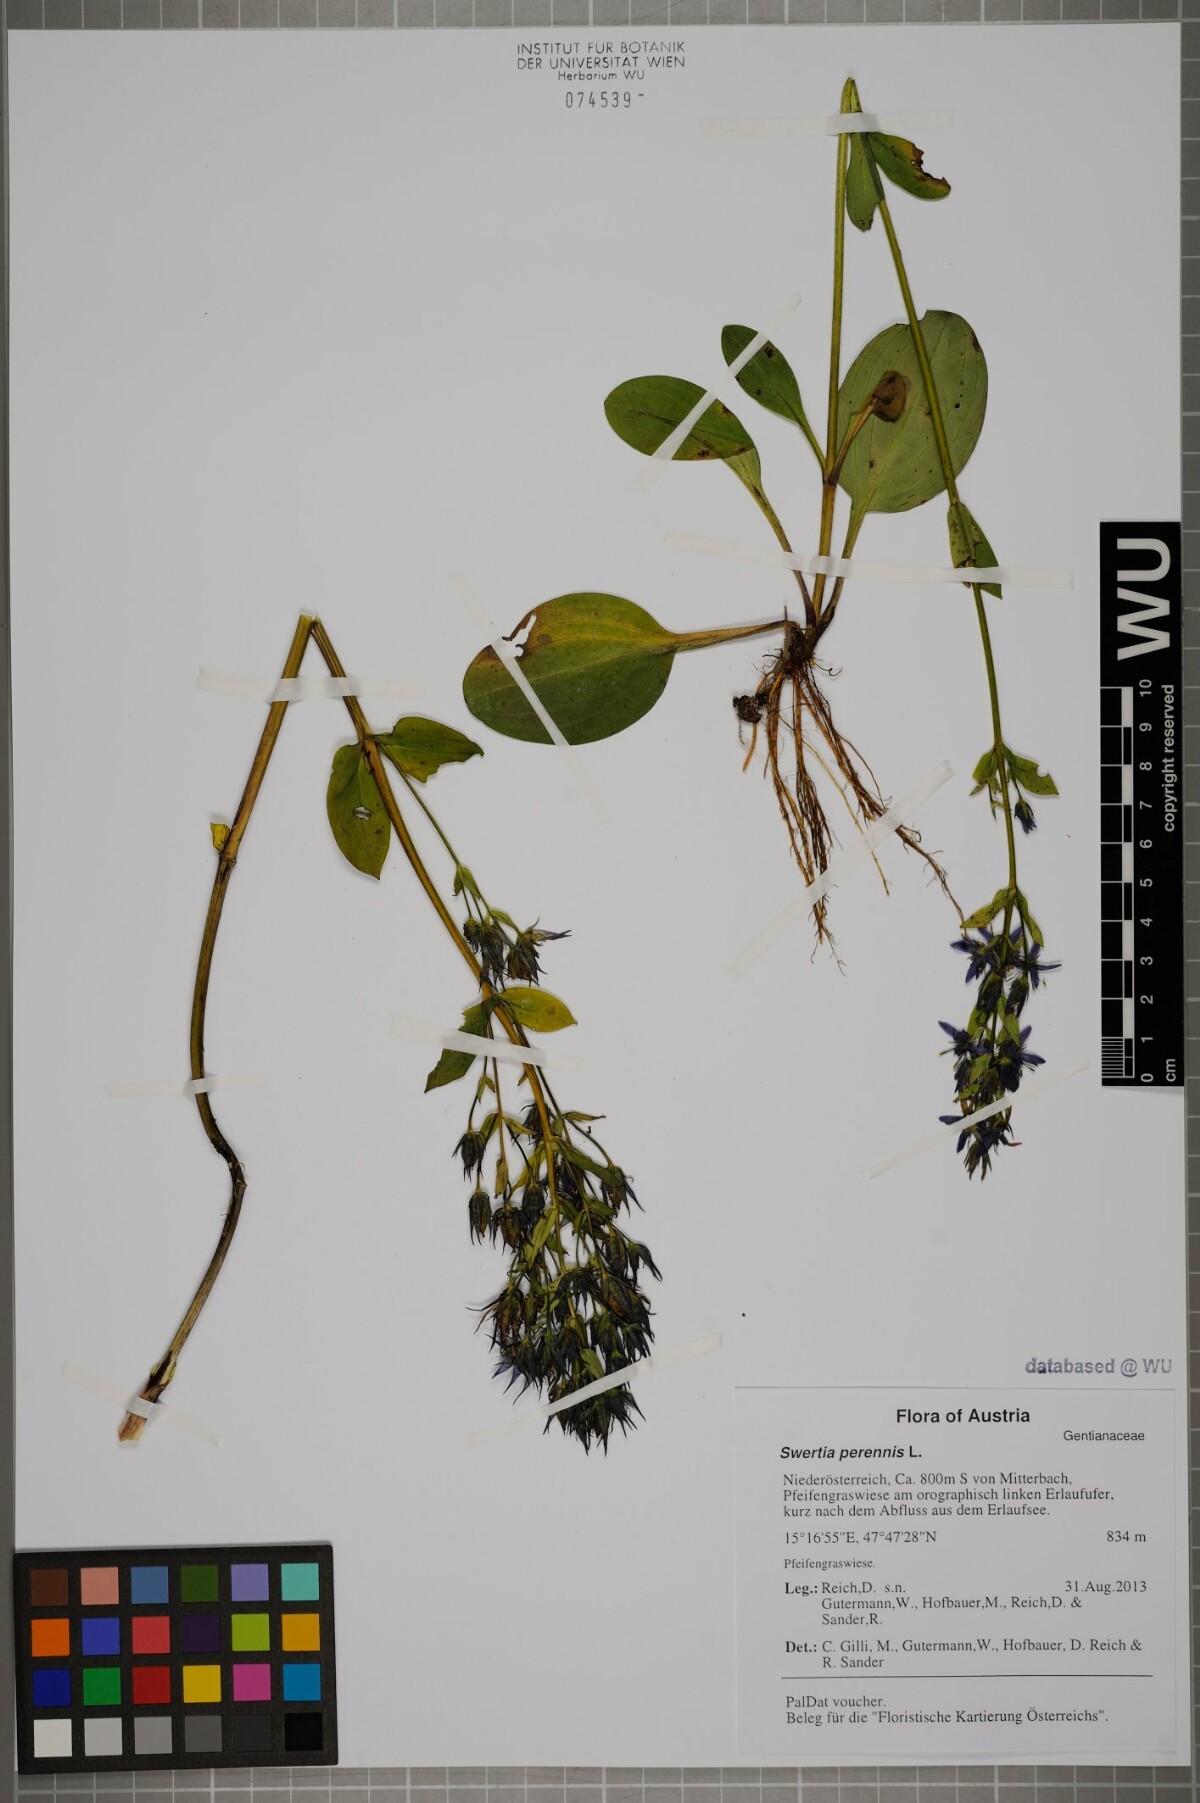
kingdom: Plantae
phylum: Tracheophyta
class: Magnoliopsida
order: Gentianales
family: Gentianaceae
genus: Swertia
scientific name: Swertia perennis
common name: Alpine bog swertia
